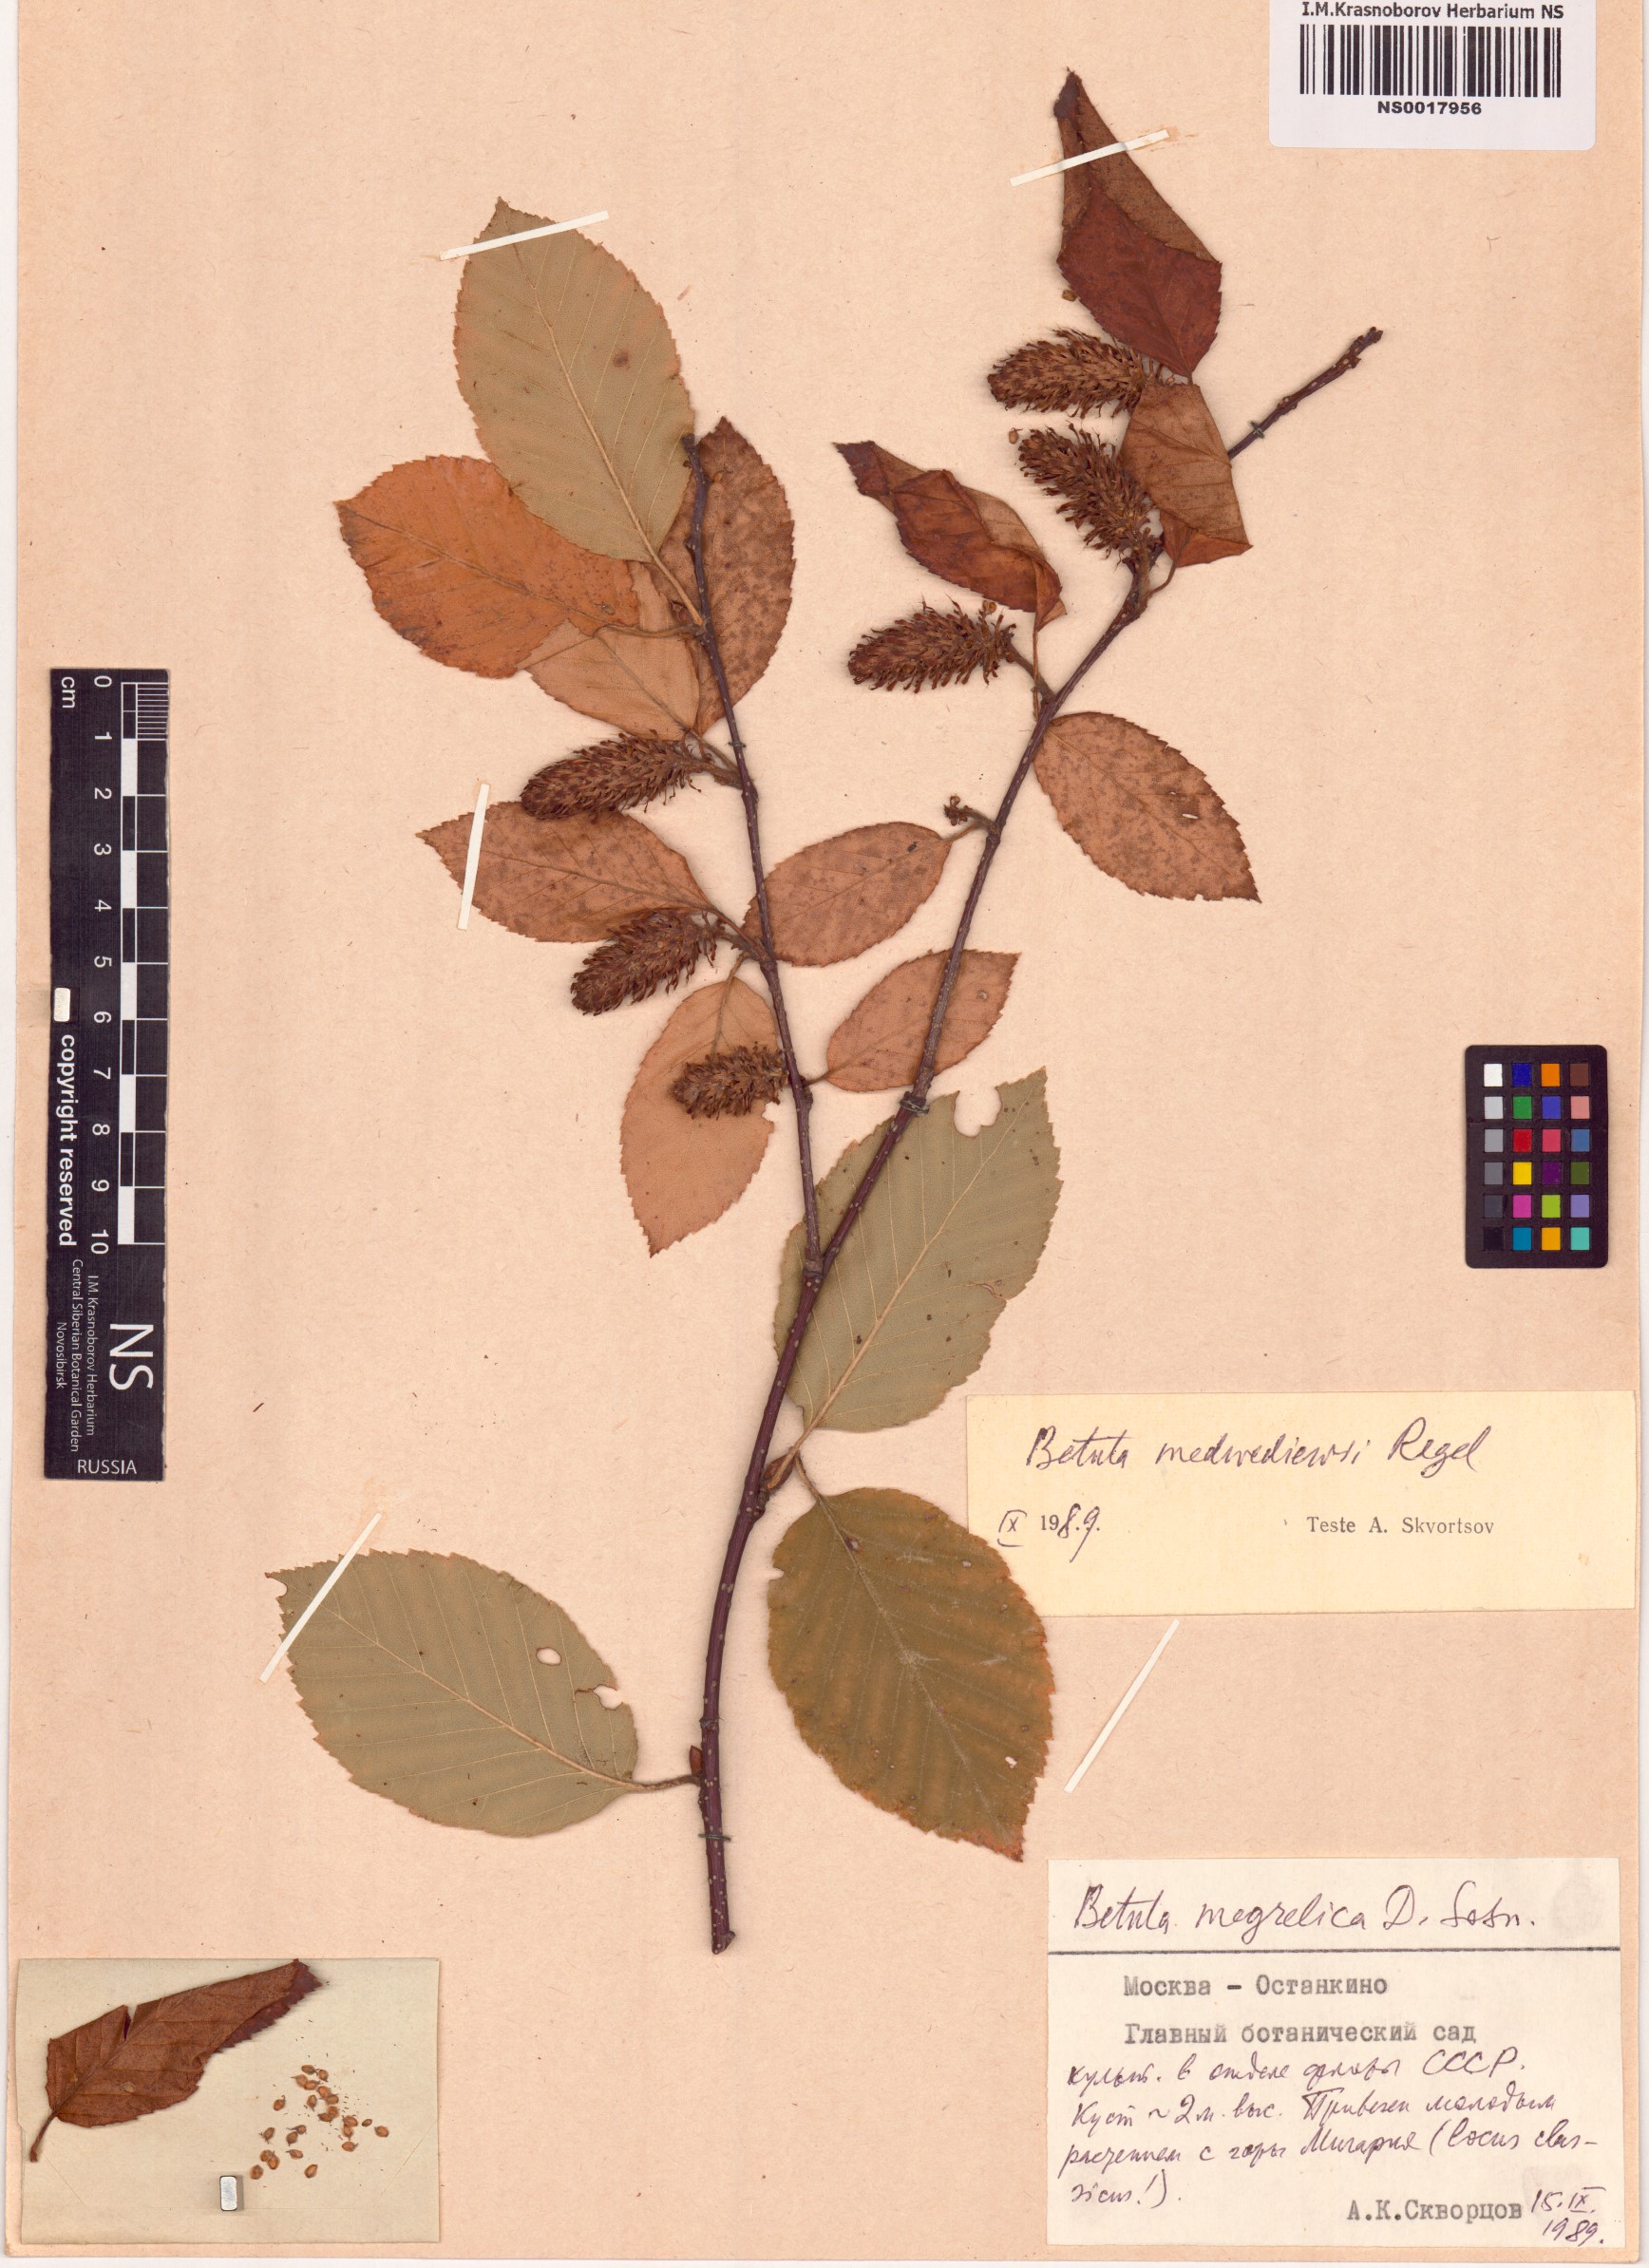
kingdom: Plantae
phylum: Tracheophyta
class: Magnoliopsida
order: Fagales
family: Betulaceae
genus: Betula
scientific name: Betula medwediewii
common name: Medwediew's birch
